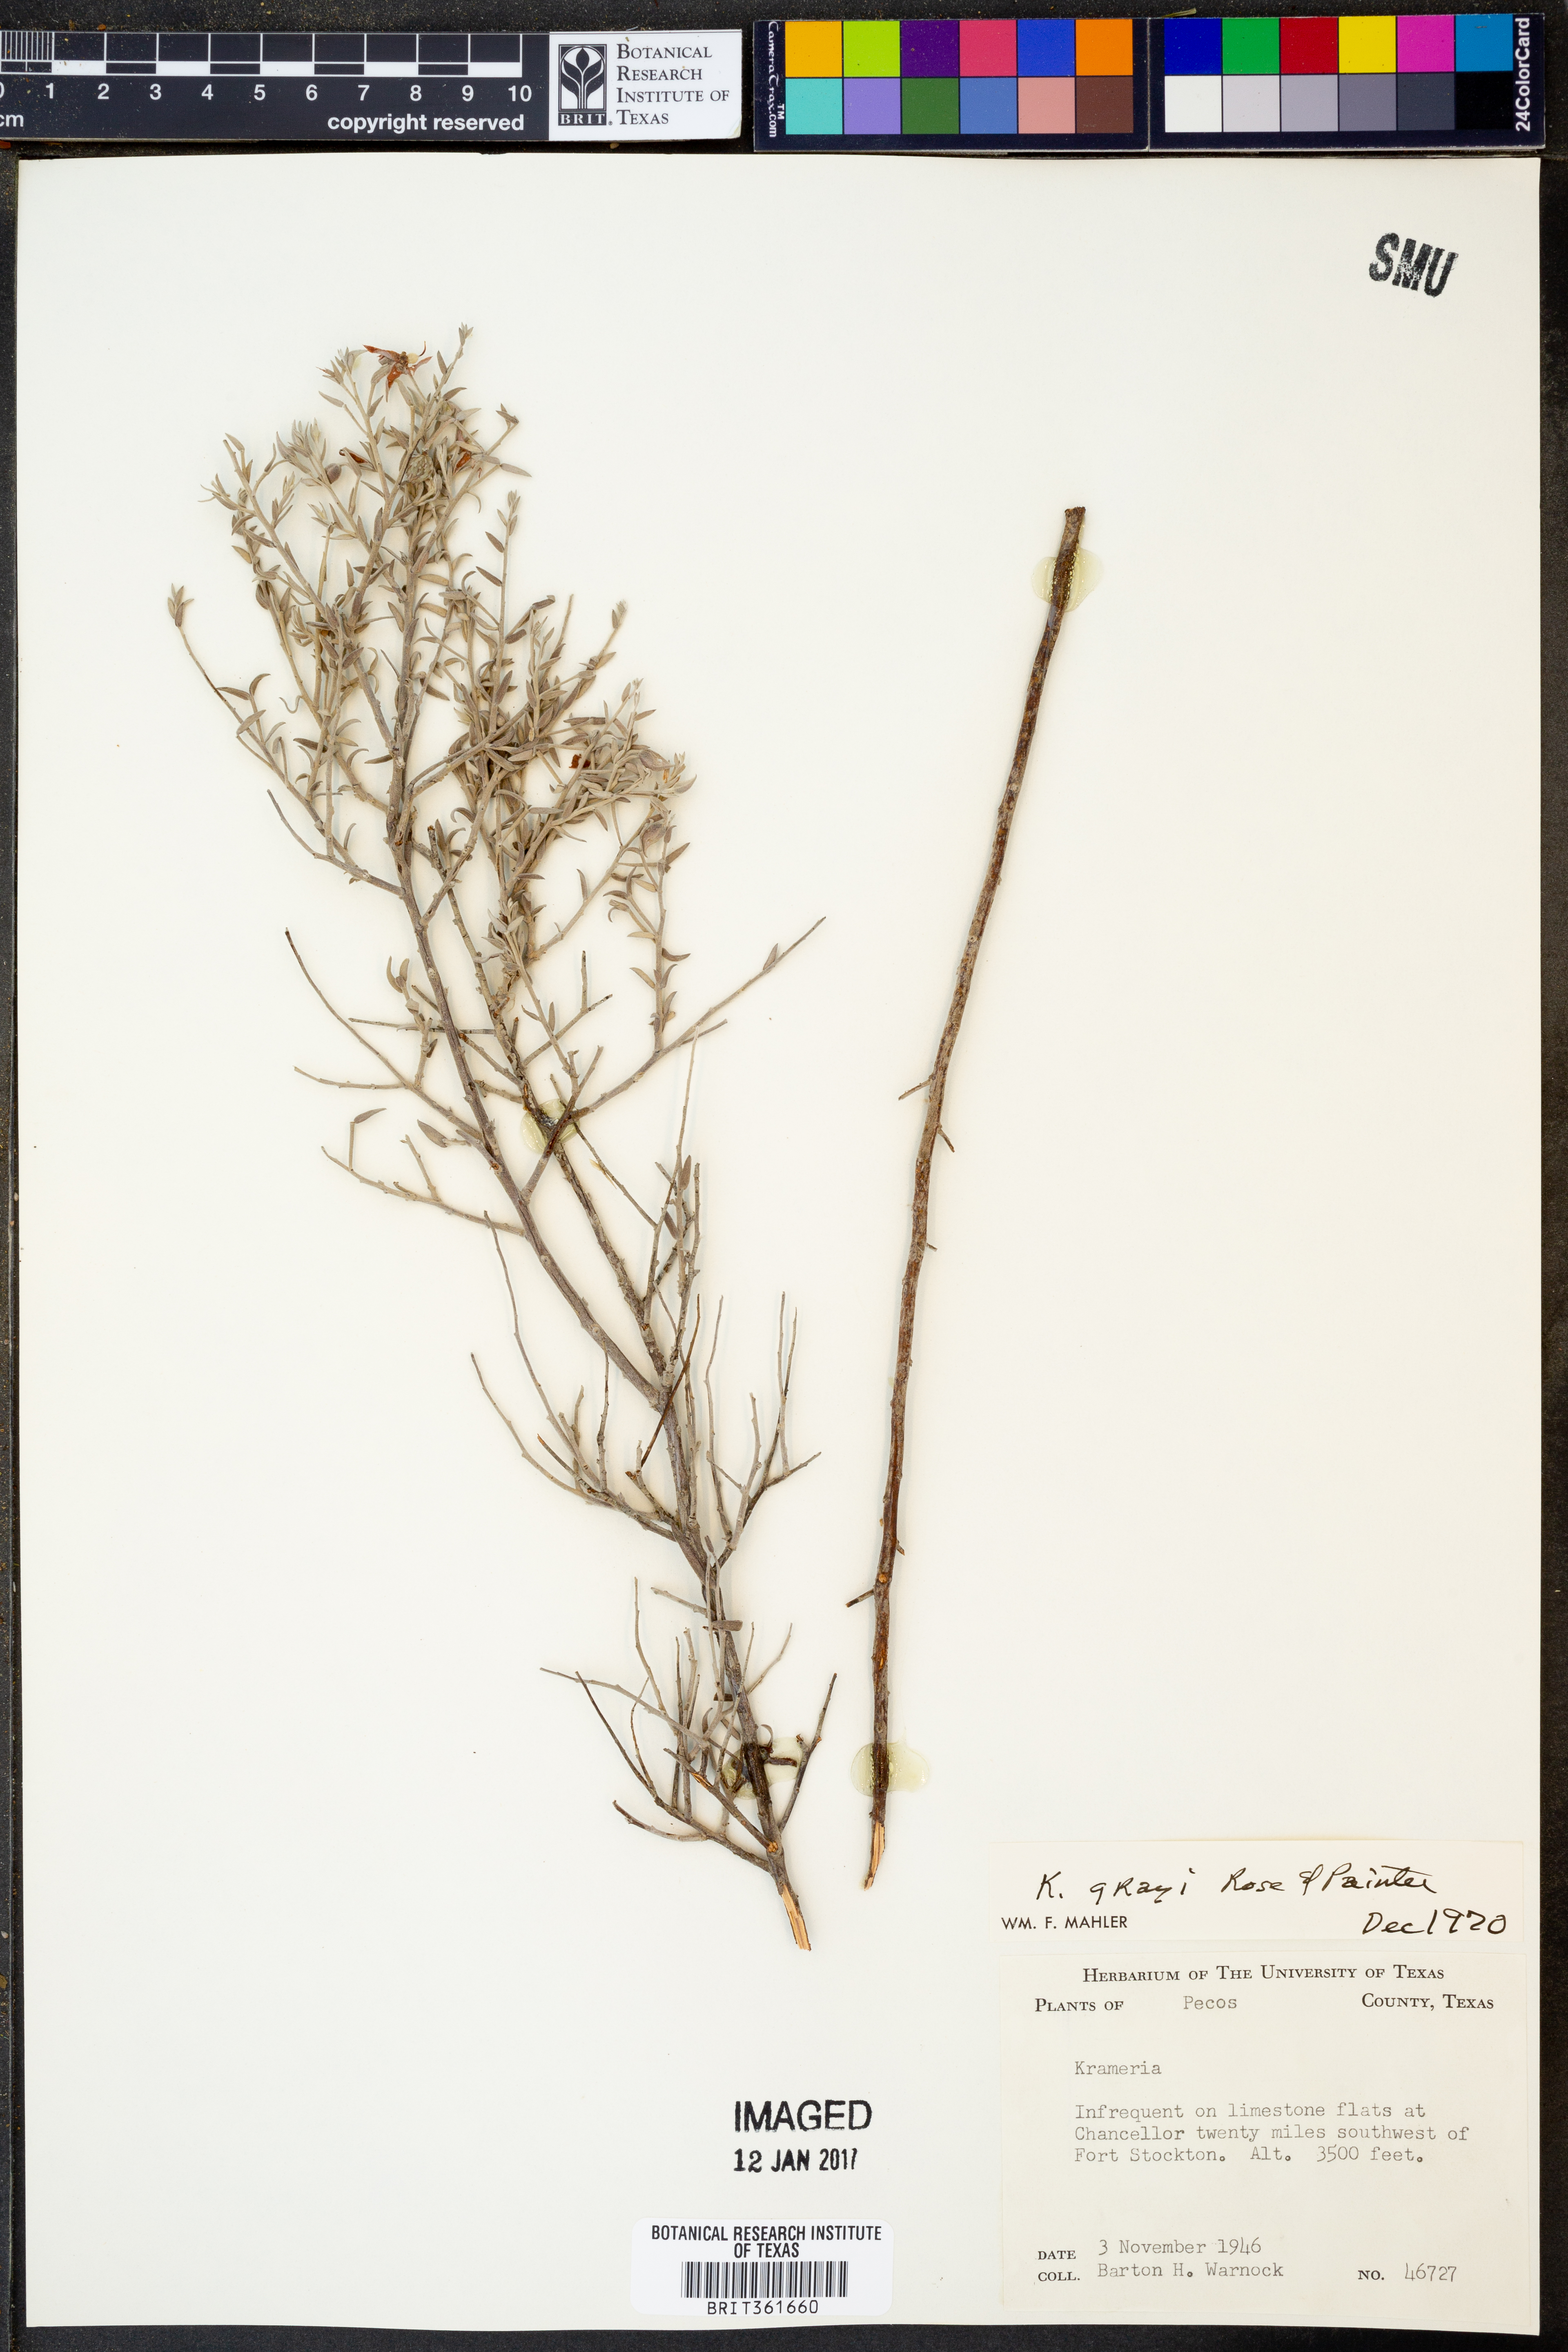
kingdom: Plantae
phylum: Tracheophyta
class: Magnoliopsida
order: Zygophyllales
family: Krameriaceae
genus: Krameria
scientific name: Krameria bicolor
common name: White ratany
